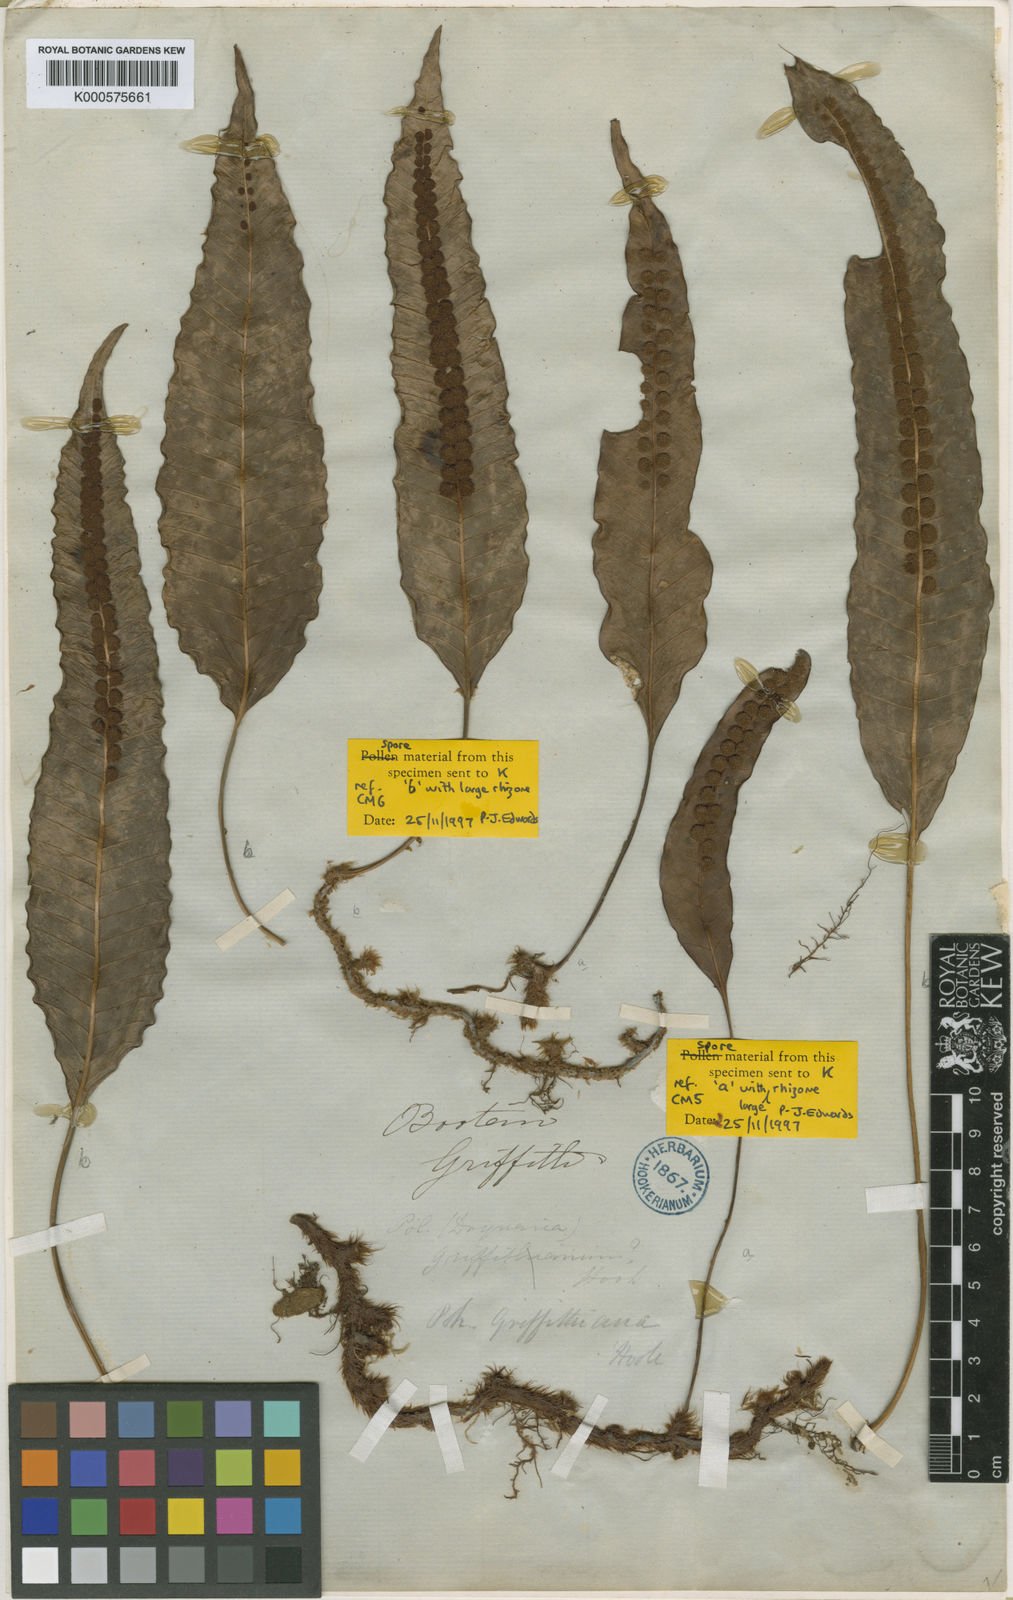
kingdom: Plantae
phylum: Tracheophyta
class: Polypodiopsida
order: Polypodiales
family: Polypodiaceae
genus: Selliguea
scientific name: Selliguea griffithiana
